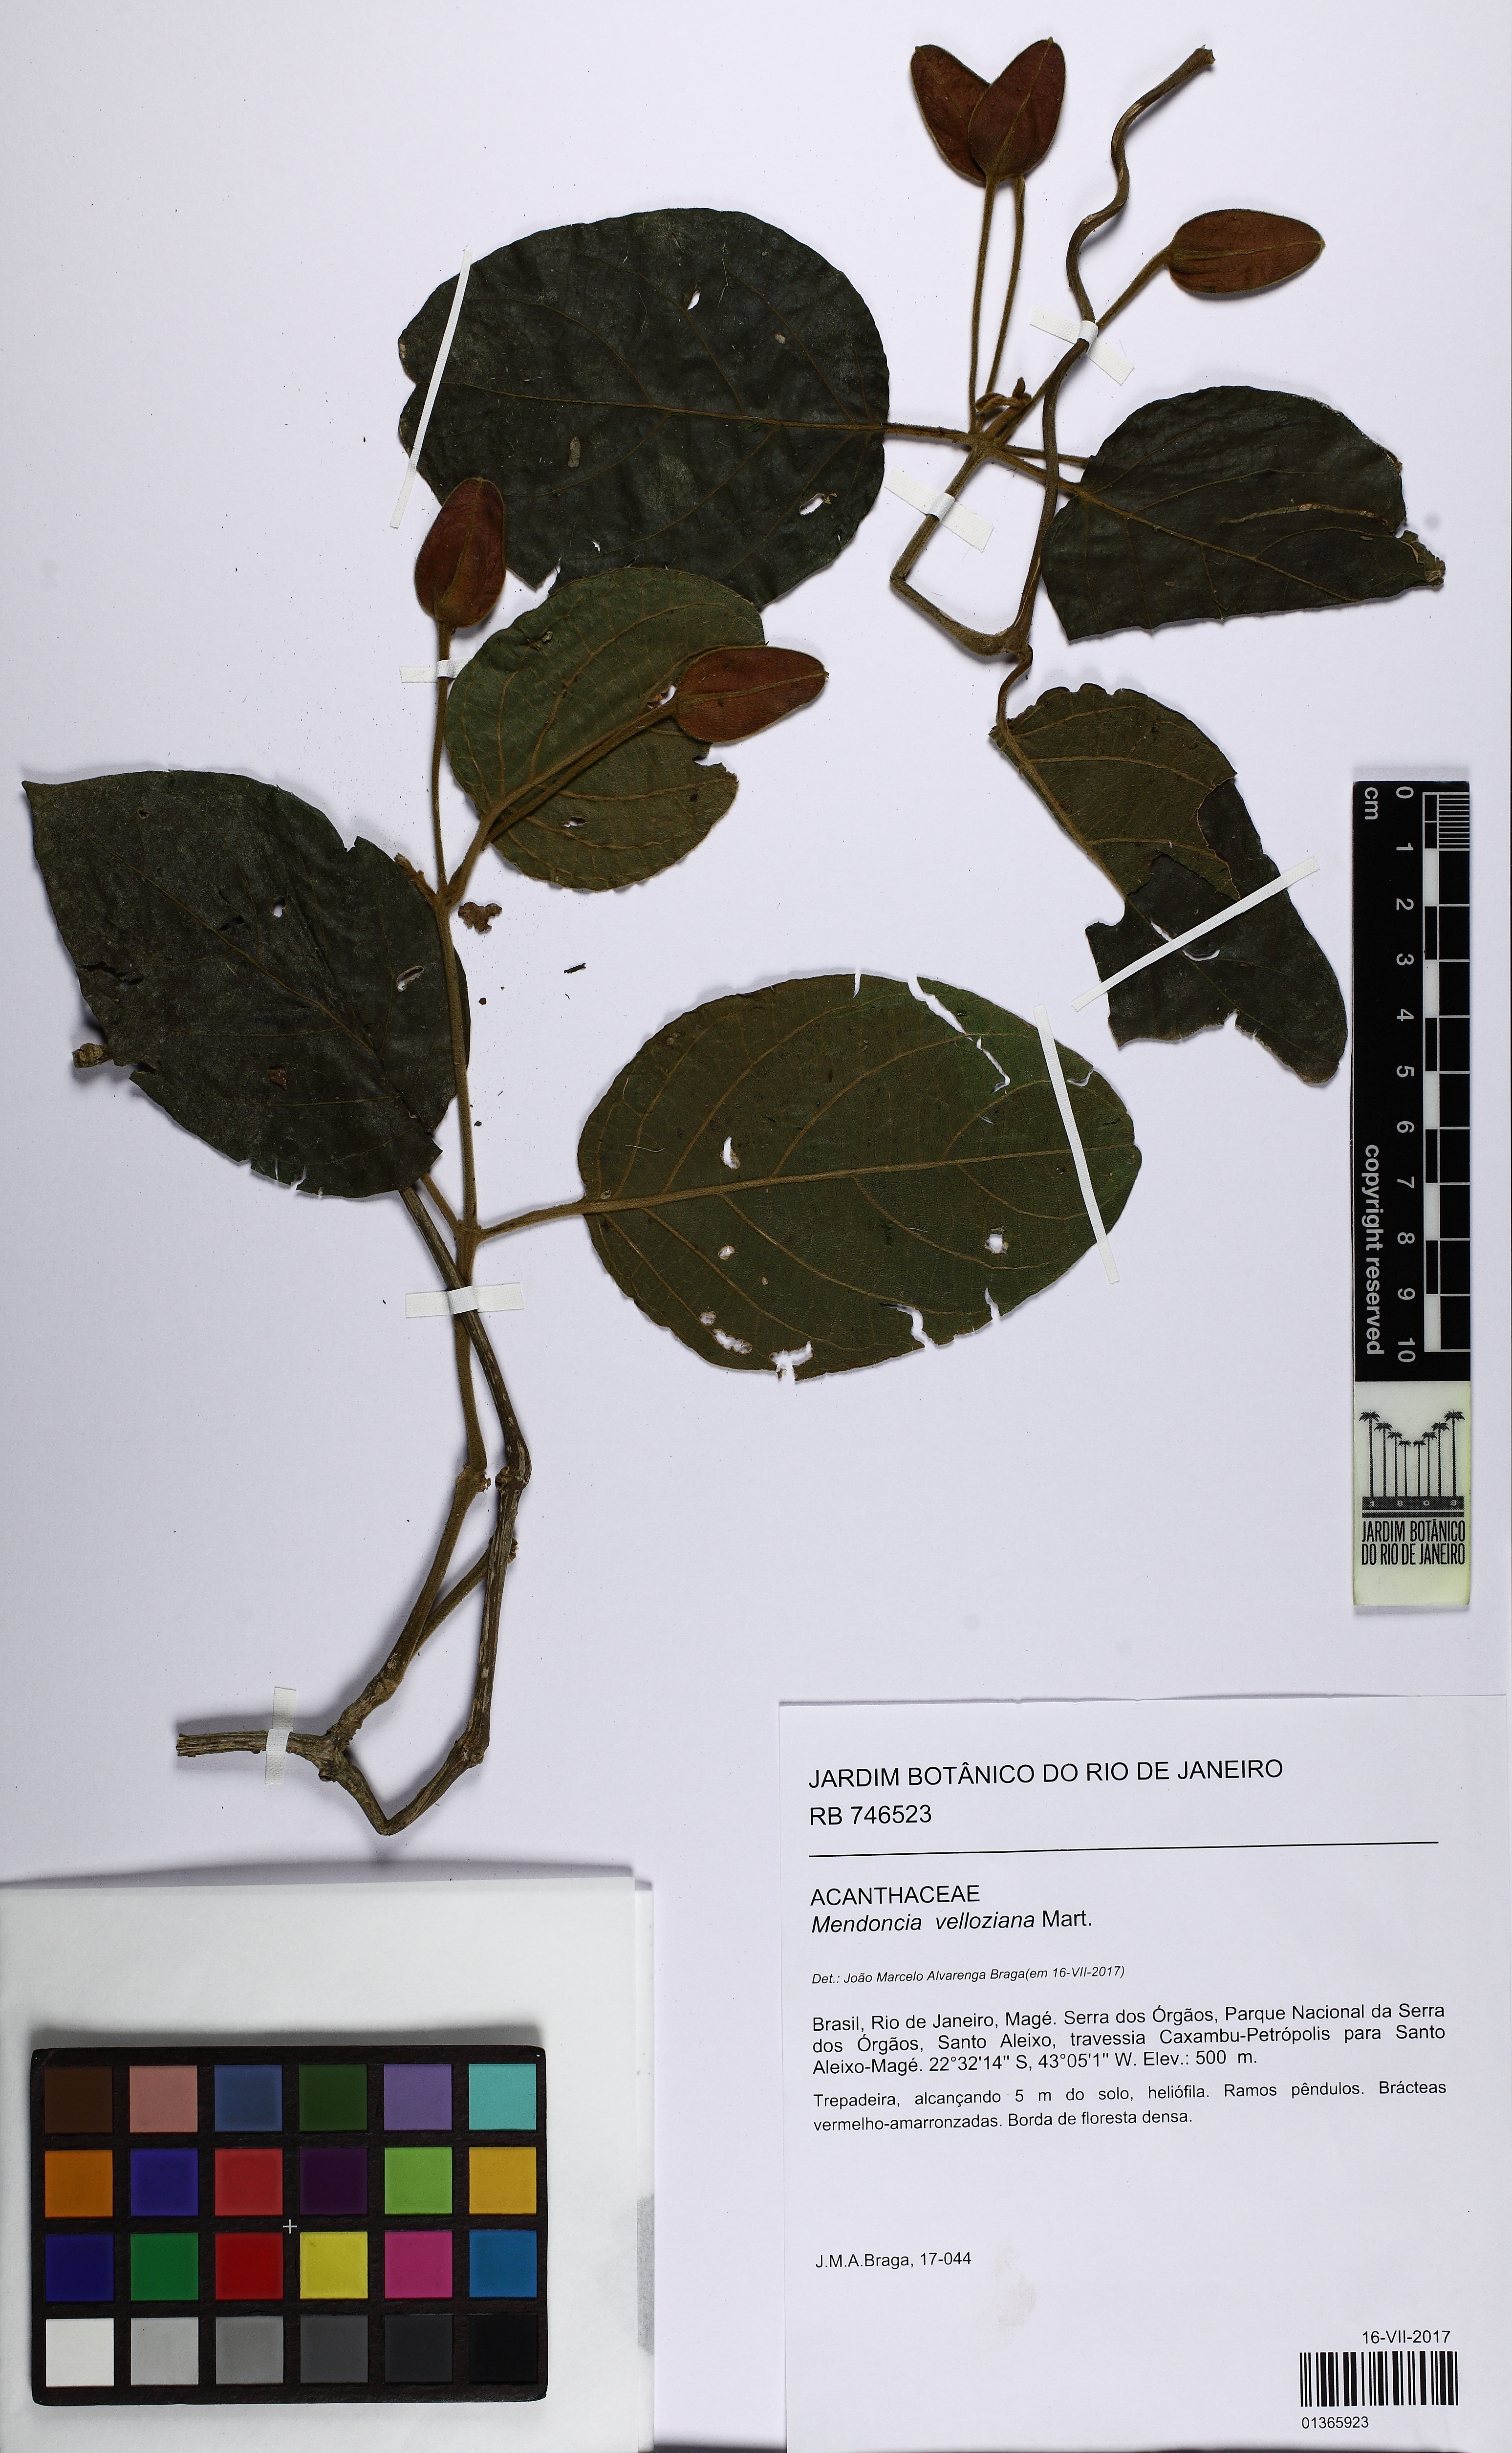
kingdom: Plantae
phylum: Tracheophyta
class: Magnoliopsida
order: Lamiales
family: Acanthaceae
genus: Mendoncia
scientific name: Mendoncia velloziana
